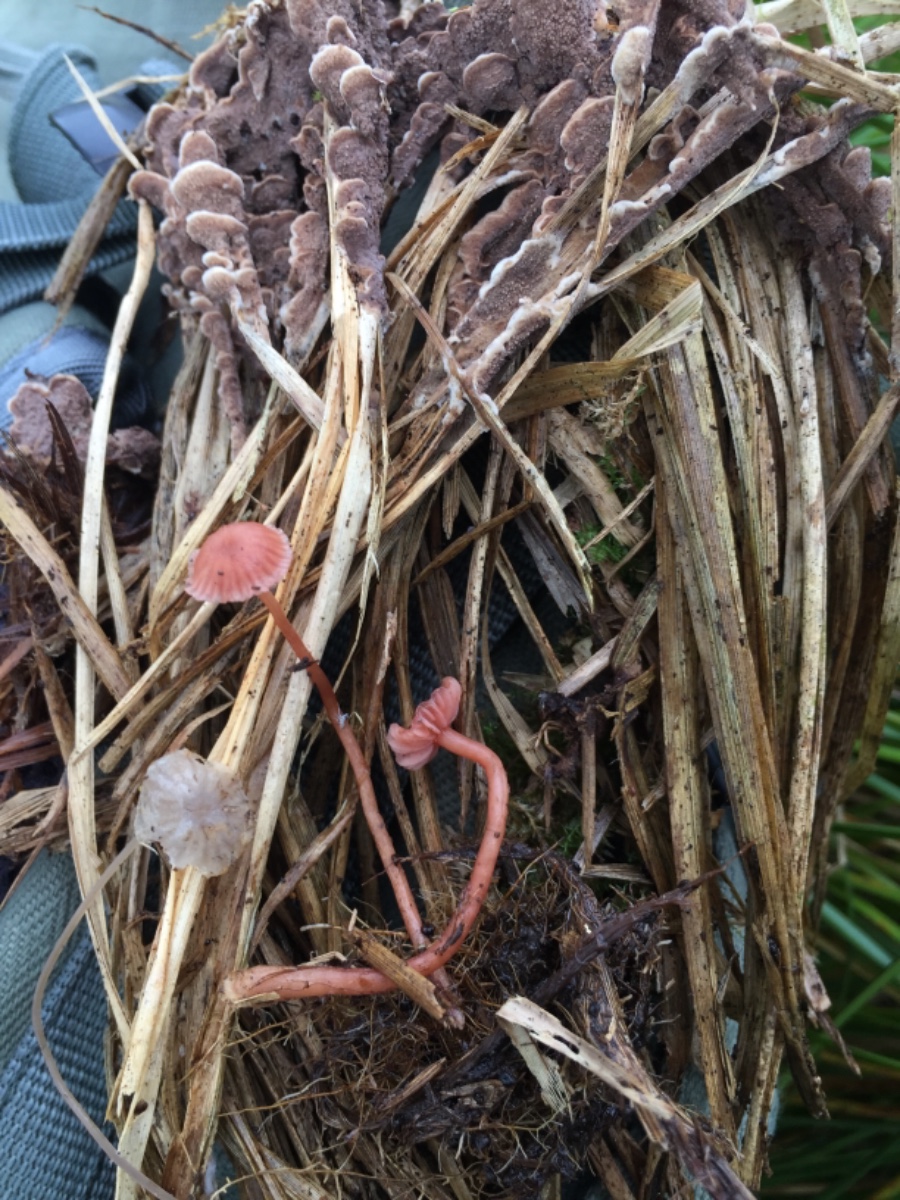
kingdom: Fungi
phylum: Basidiomycota
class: Agaricomycetes
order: Agaricales
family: Mycenaceae
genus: Mycena
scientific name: Mycena
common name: huesvamp
